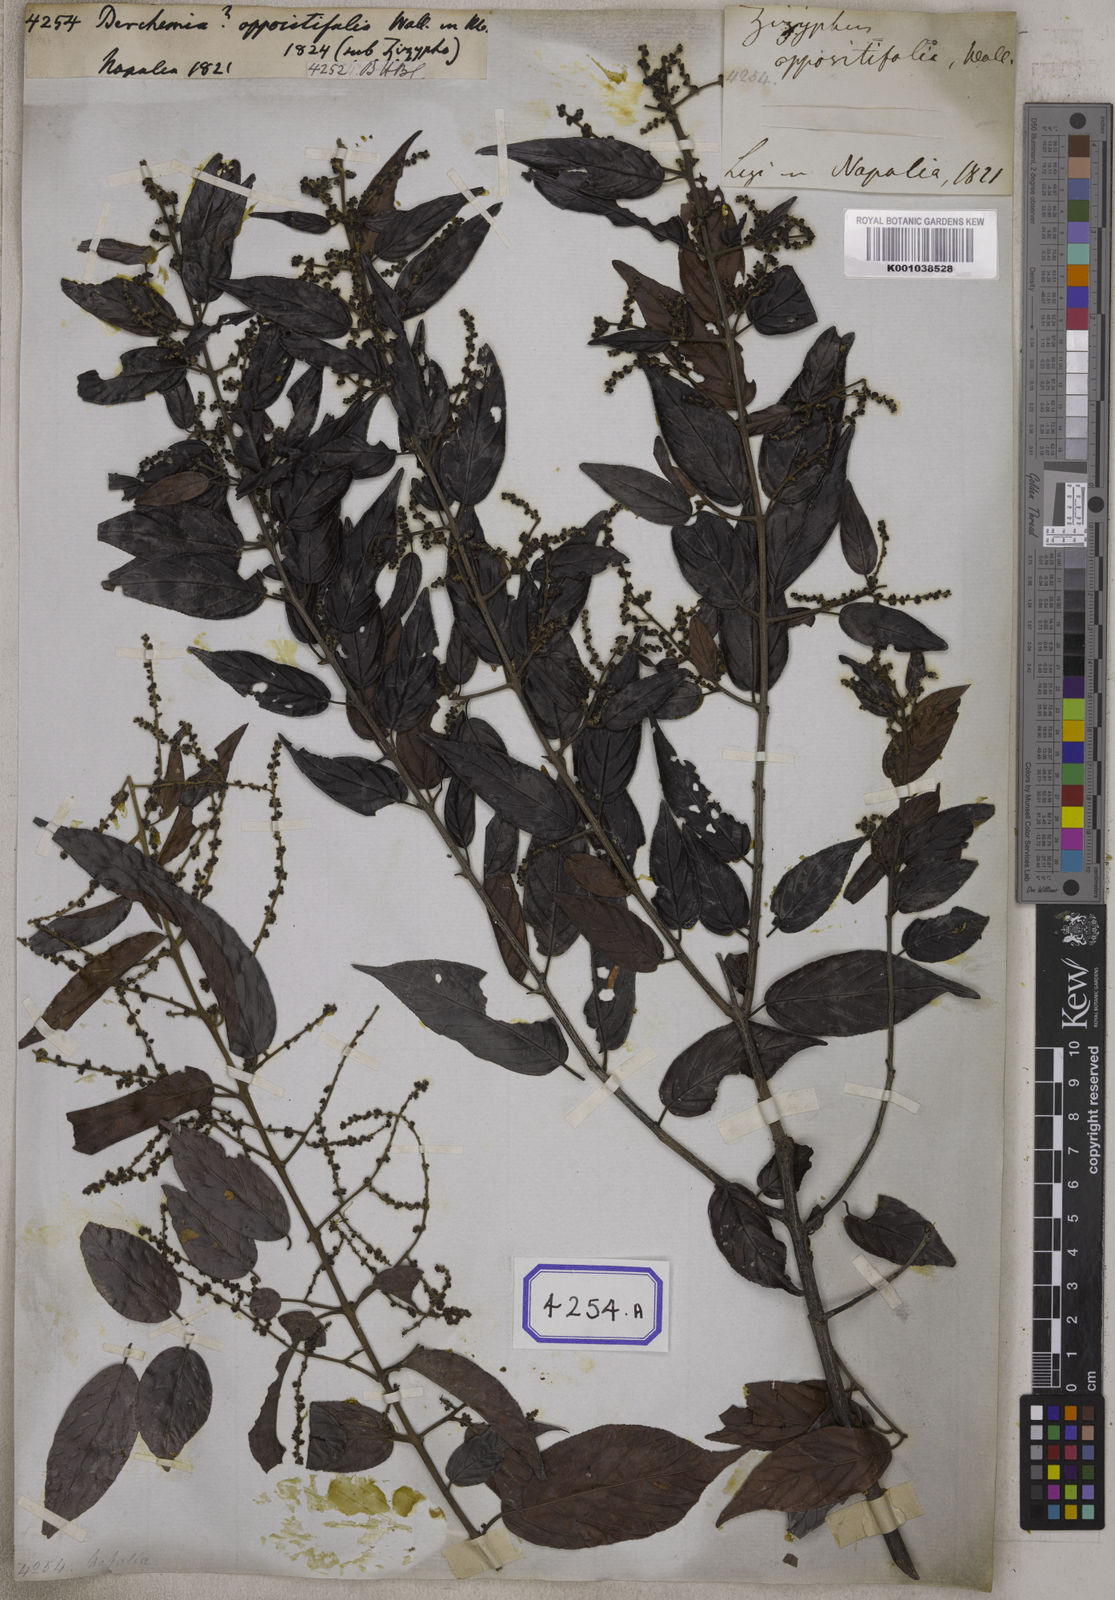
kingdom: Plantae
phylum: Tracheophyta
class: Magnoliopsida
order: Rosales
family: Rhamnaceae
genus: Sageretia
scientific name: Sageretia filiformis
